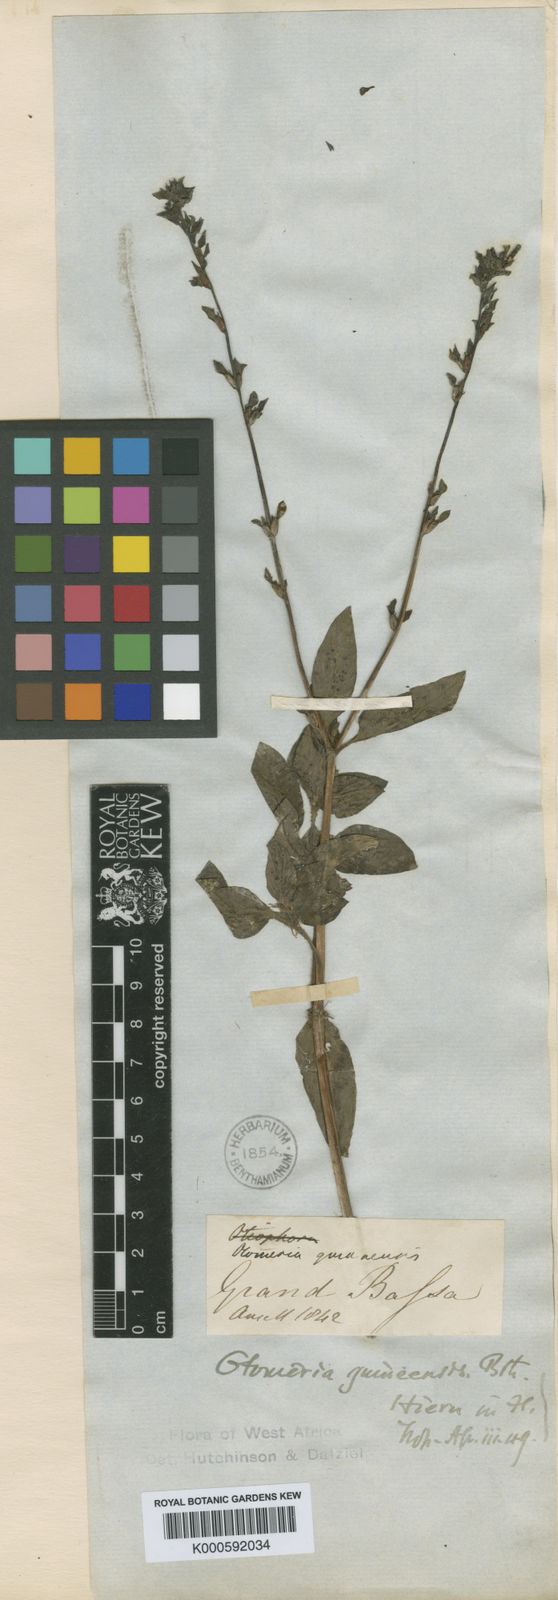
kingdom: Plantae
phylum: Tracheophyta
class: Magnoliopsida
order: Gentianales
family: Rubiaceae
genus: Otomeria
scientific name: Otomeria guineensis
